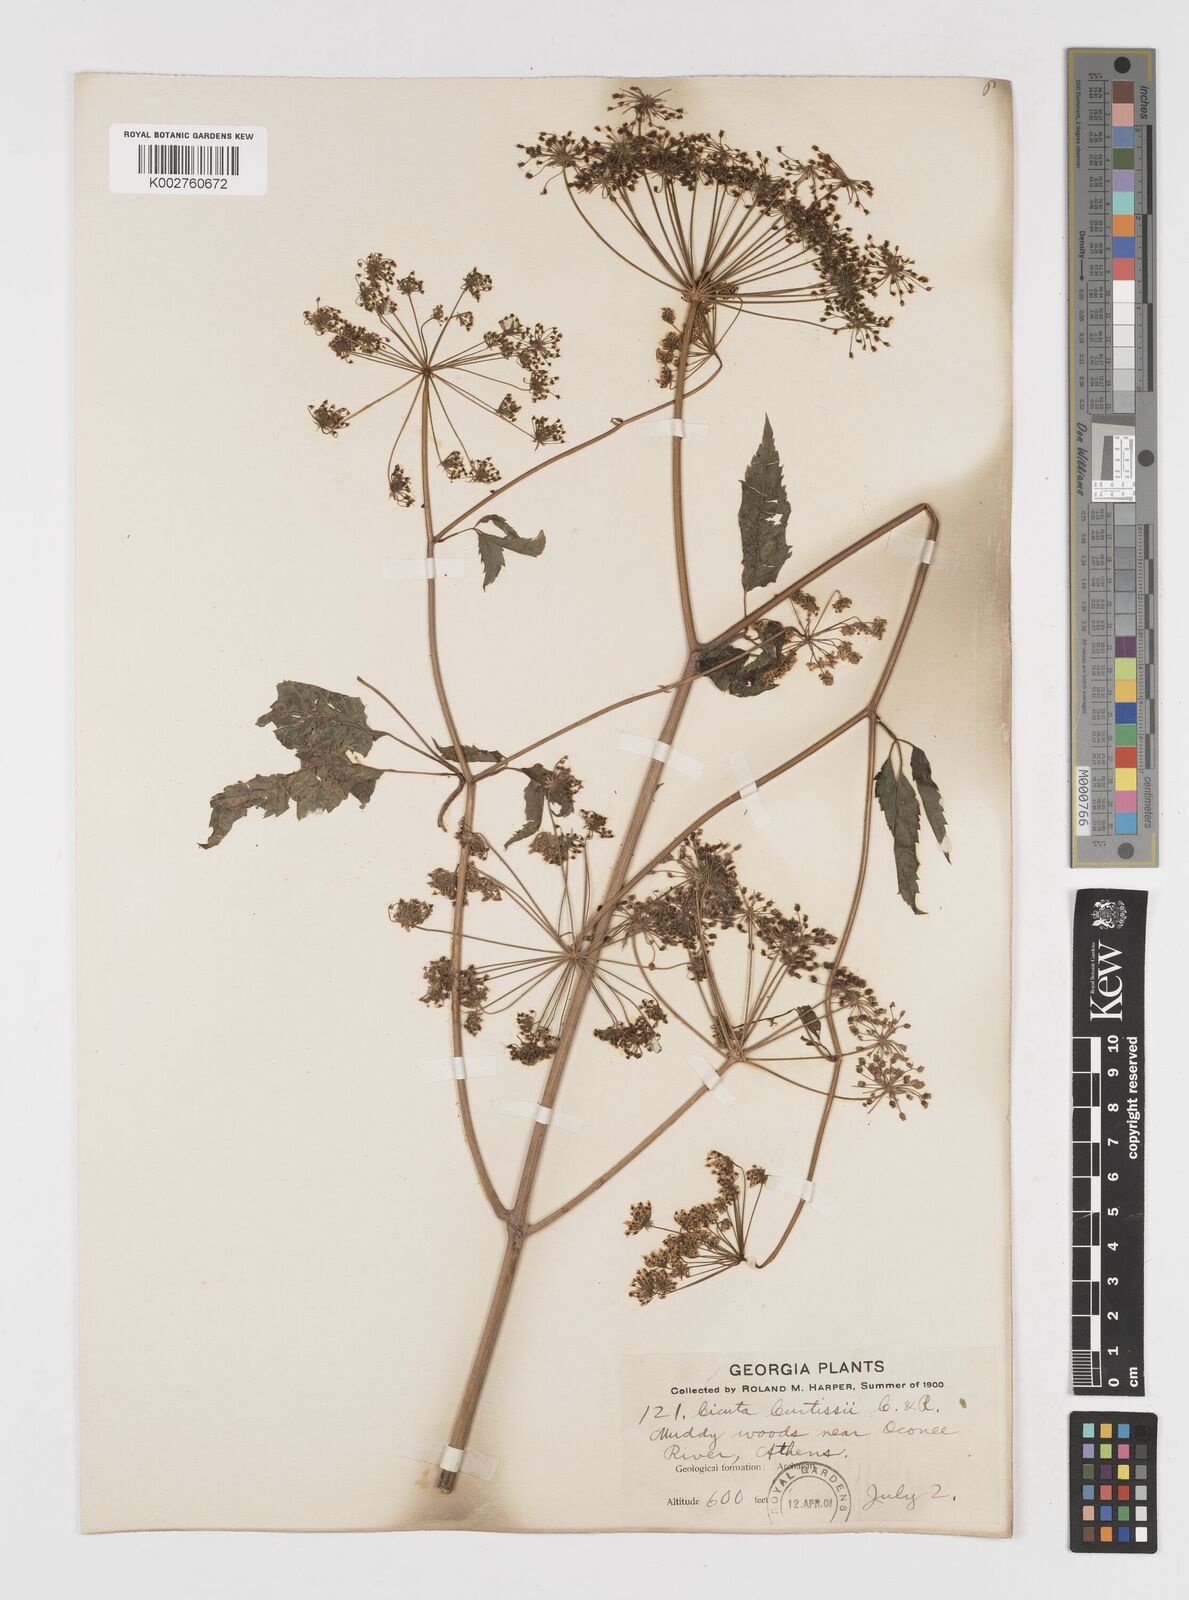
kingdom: Plantae
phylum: Tracheophyta
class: Magnoliopsida
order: Apiales
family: Apiaceae
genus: Cicuta
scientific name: Cicuta maculata
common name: Spotted cowbane
